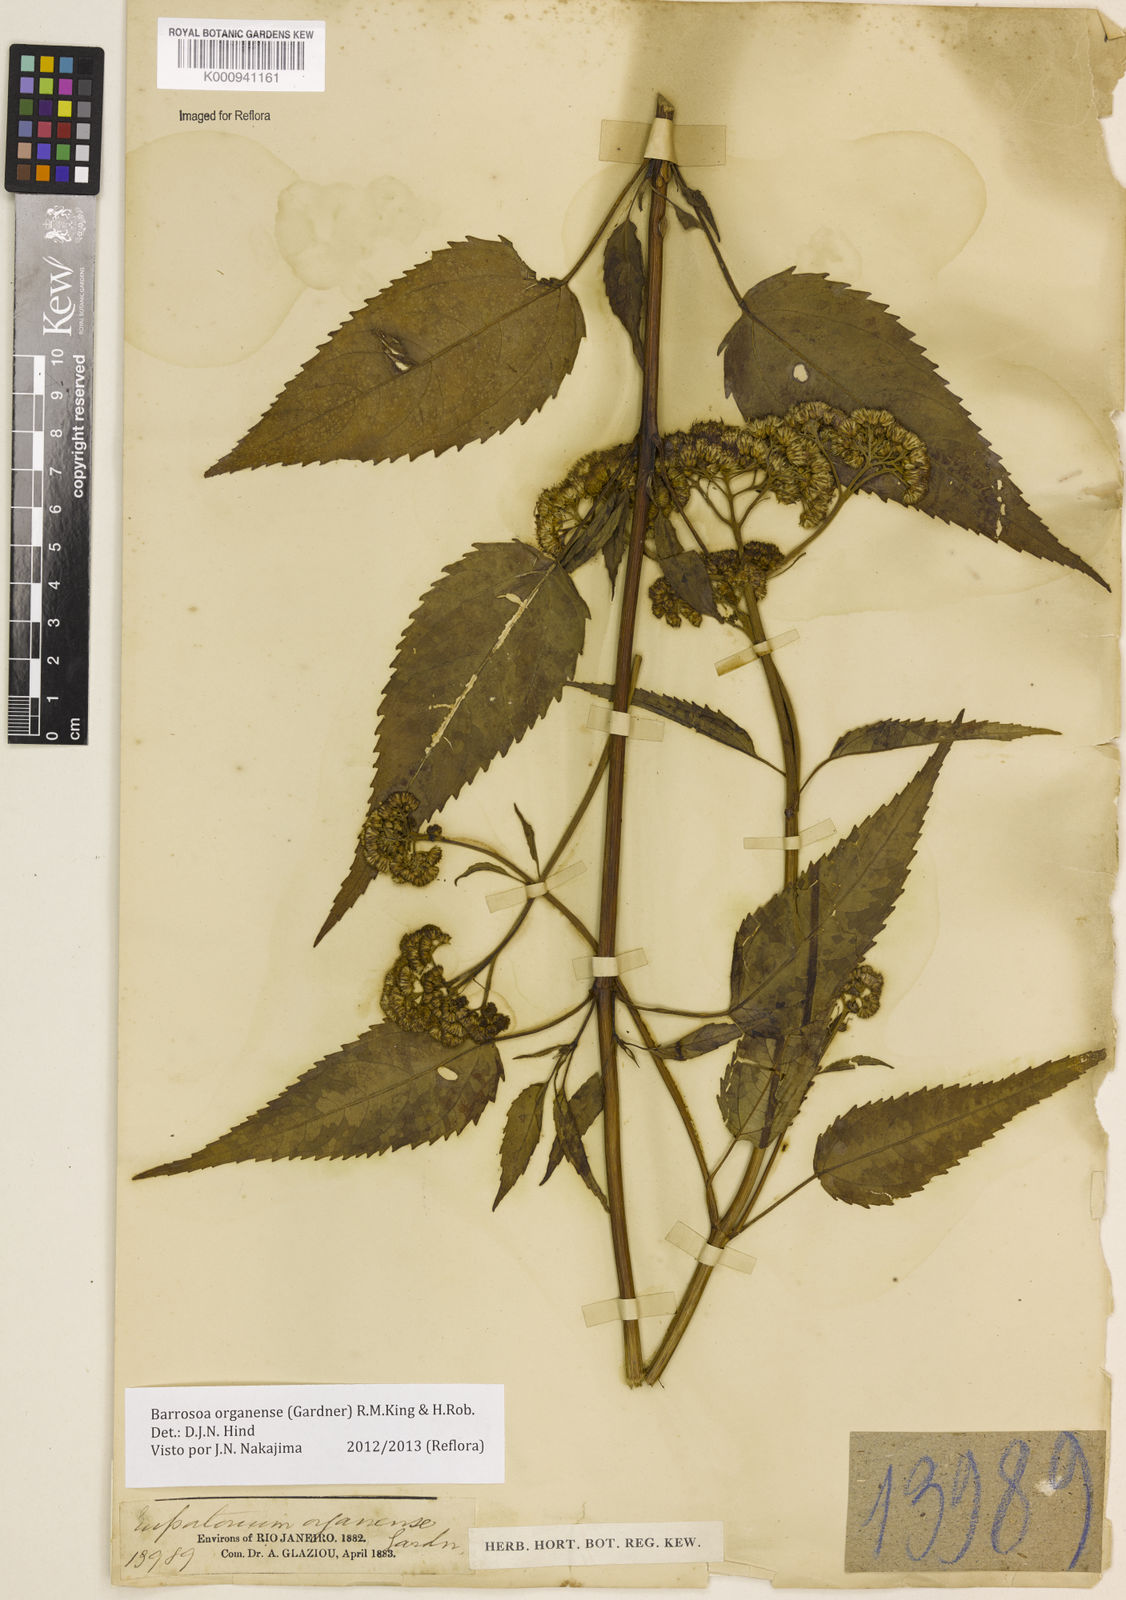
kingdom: Plantae
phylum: Tracheophyta
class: Magnoliopsida
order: Asterales
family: Asteraceae
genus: Barrosoa
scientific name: Barrosoa
